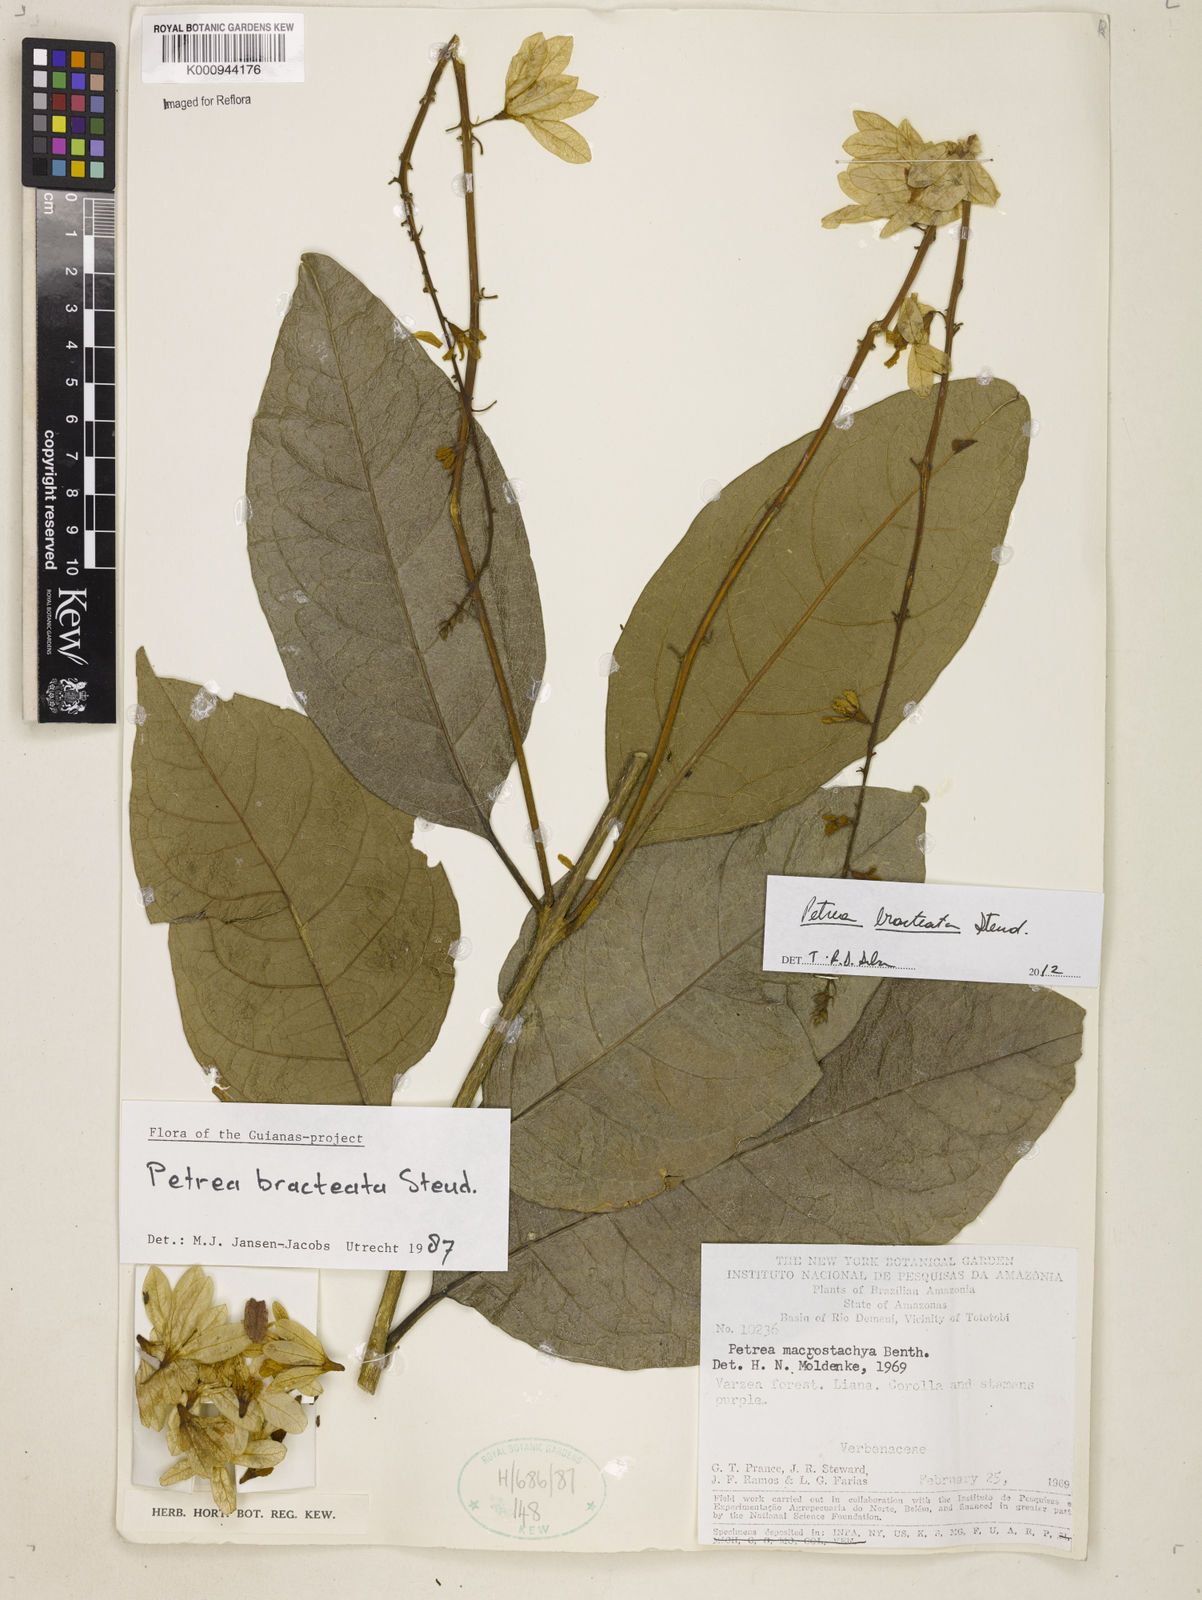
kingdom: Plantae
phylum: Tracheophyta
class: Magnoliopsida
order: Lamiales
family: Verbenaceae
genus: Petrea
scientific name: Petrea bracteata
